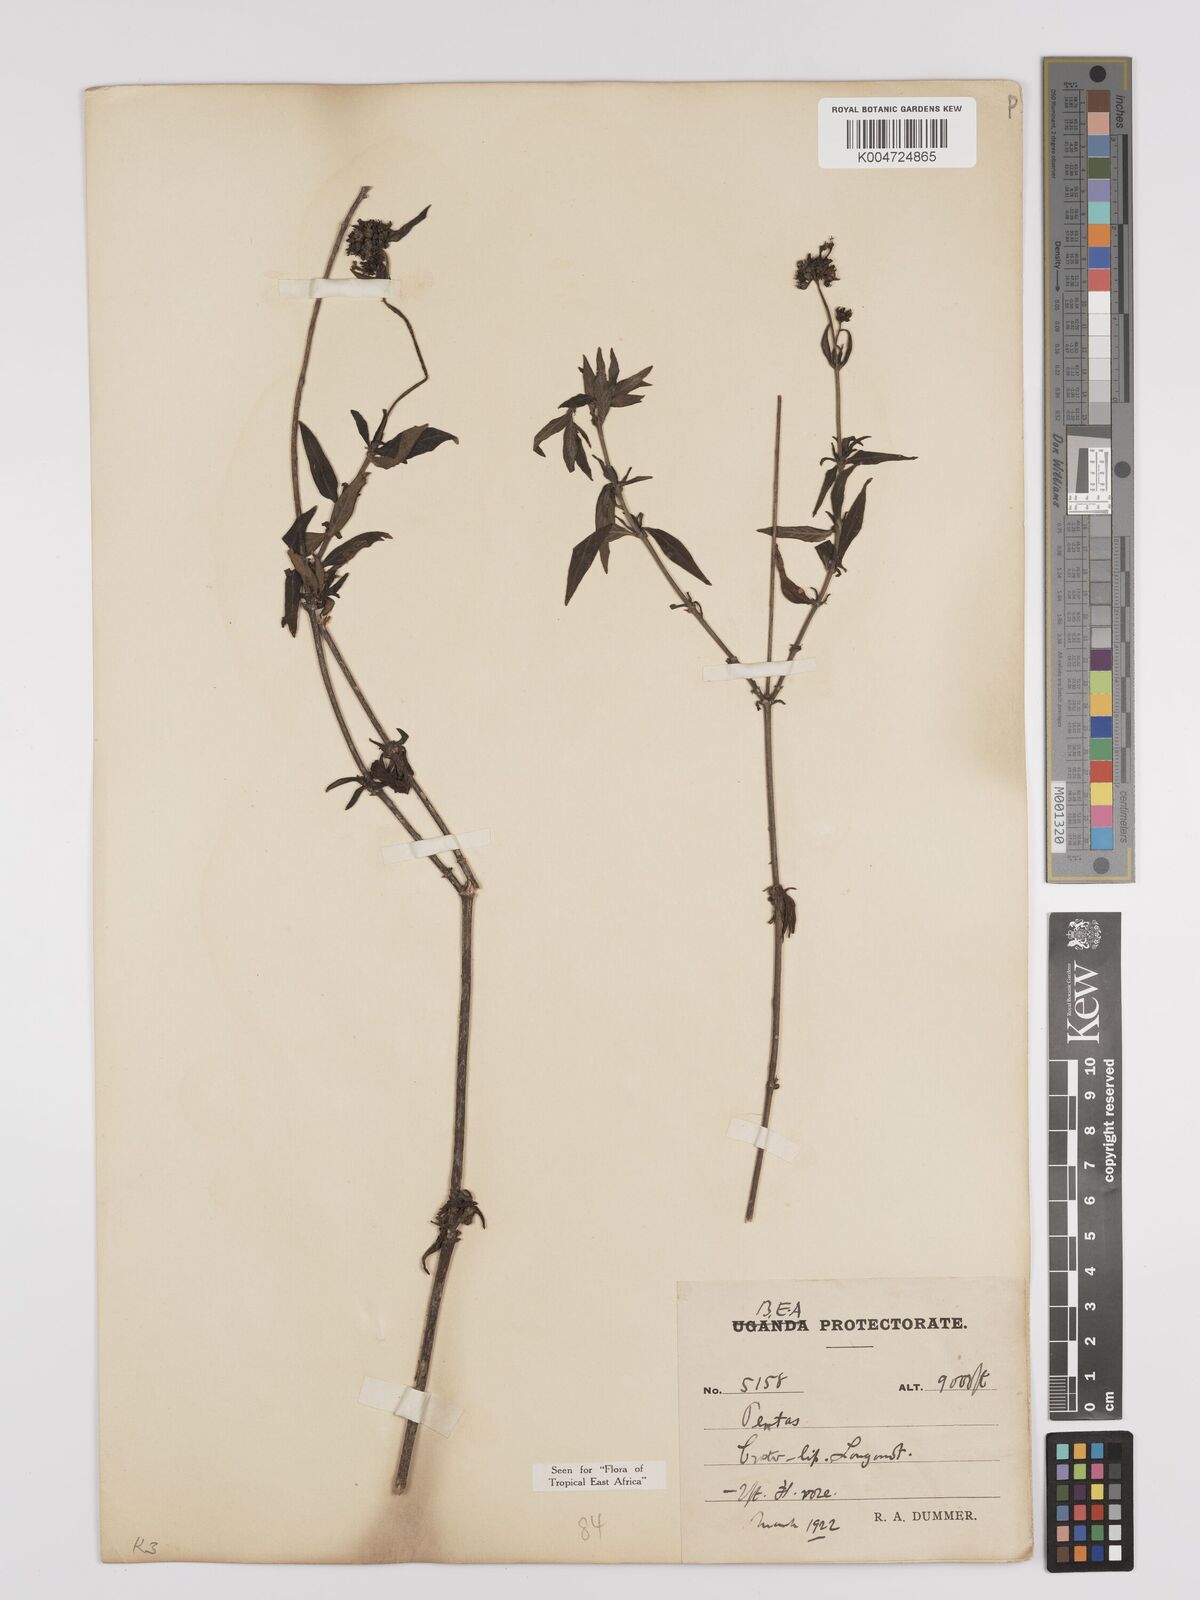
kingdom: Plantae
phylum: Tracheophyta
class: Magnoliopsida
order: Gentianales
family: Rubiaceae
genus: Pentas
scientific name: Pentas zanzibarica
